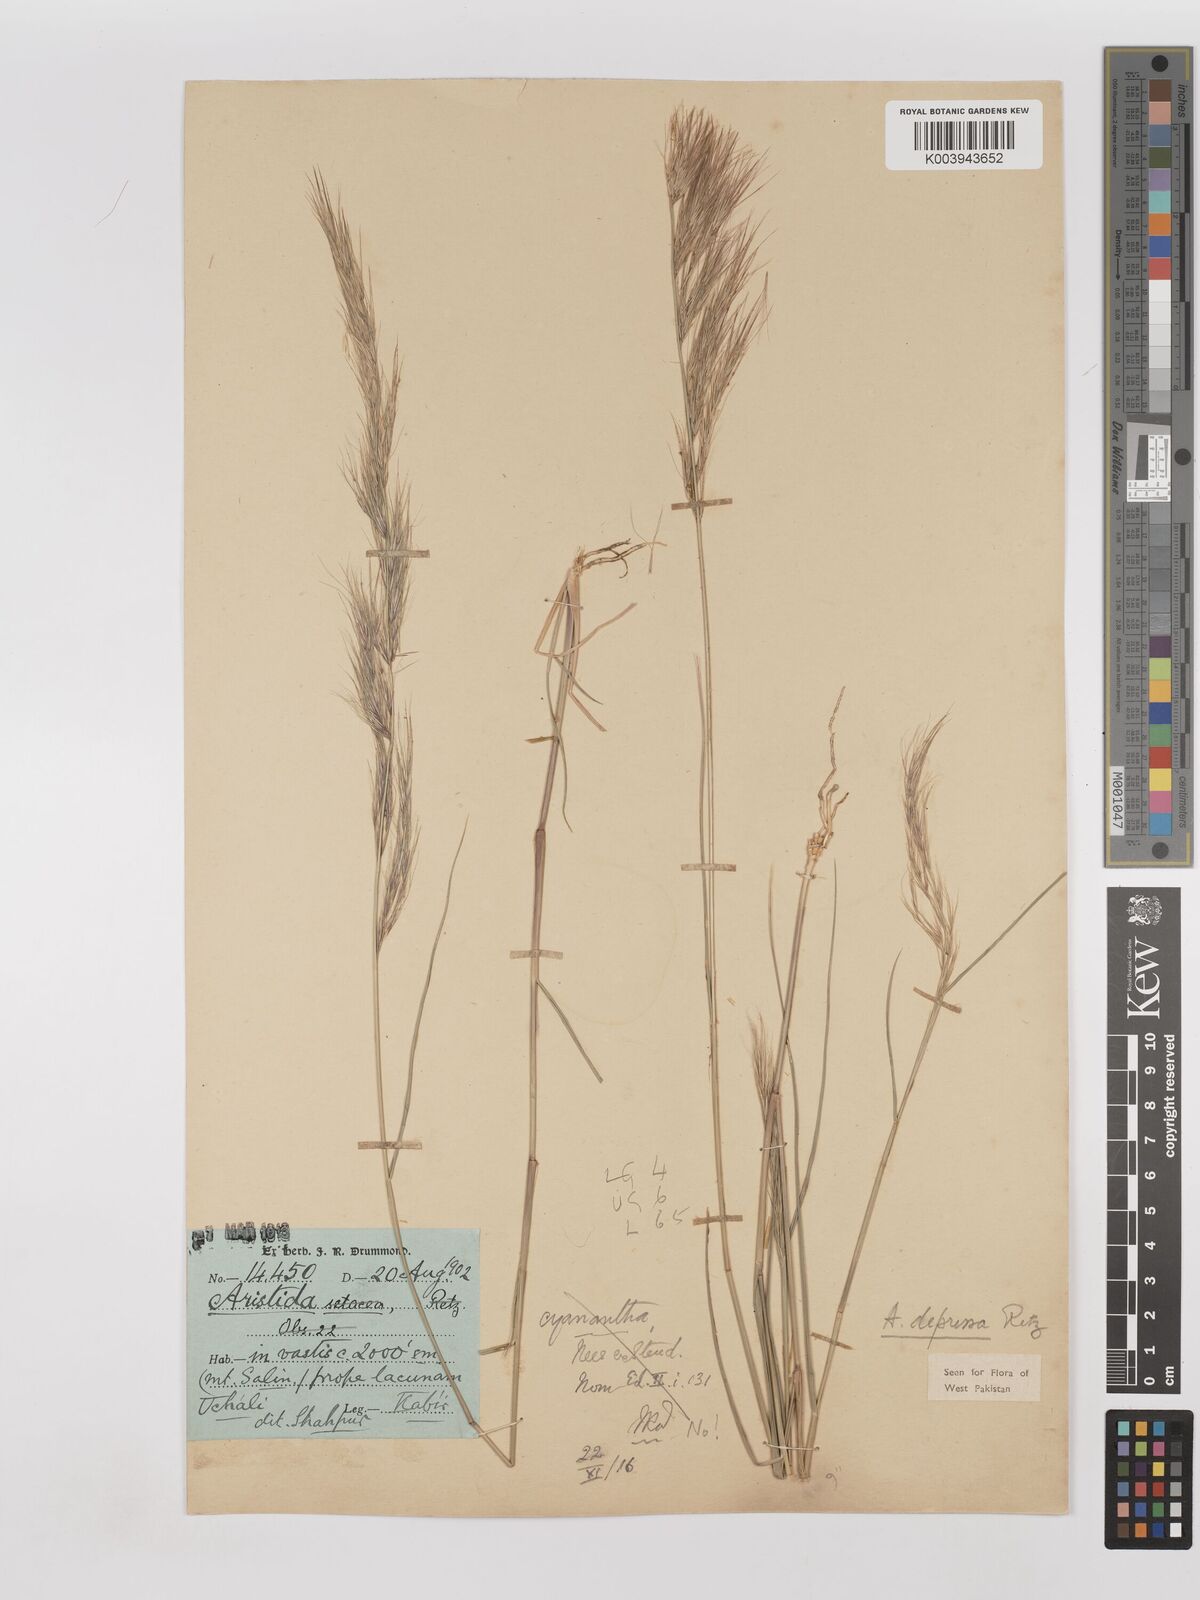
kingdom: Plantae
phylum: Tracheophyta
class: Liliopsida
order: Poales
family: Poaceae
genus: Aristida
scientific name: Aristida adscensionis
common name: Sixweeks threeawn
